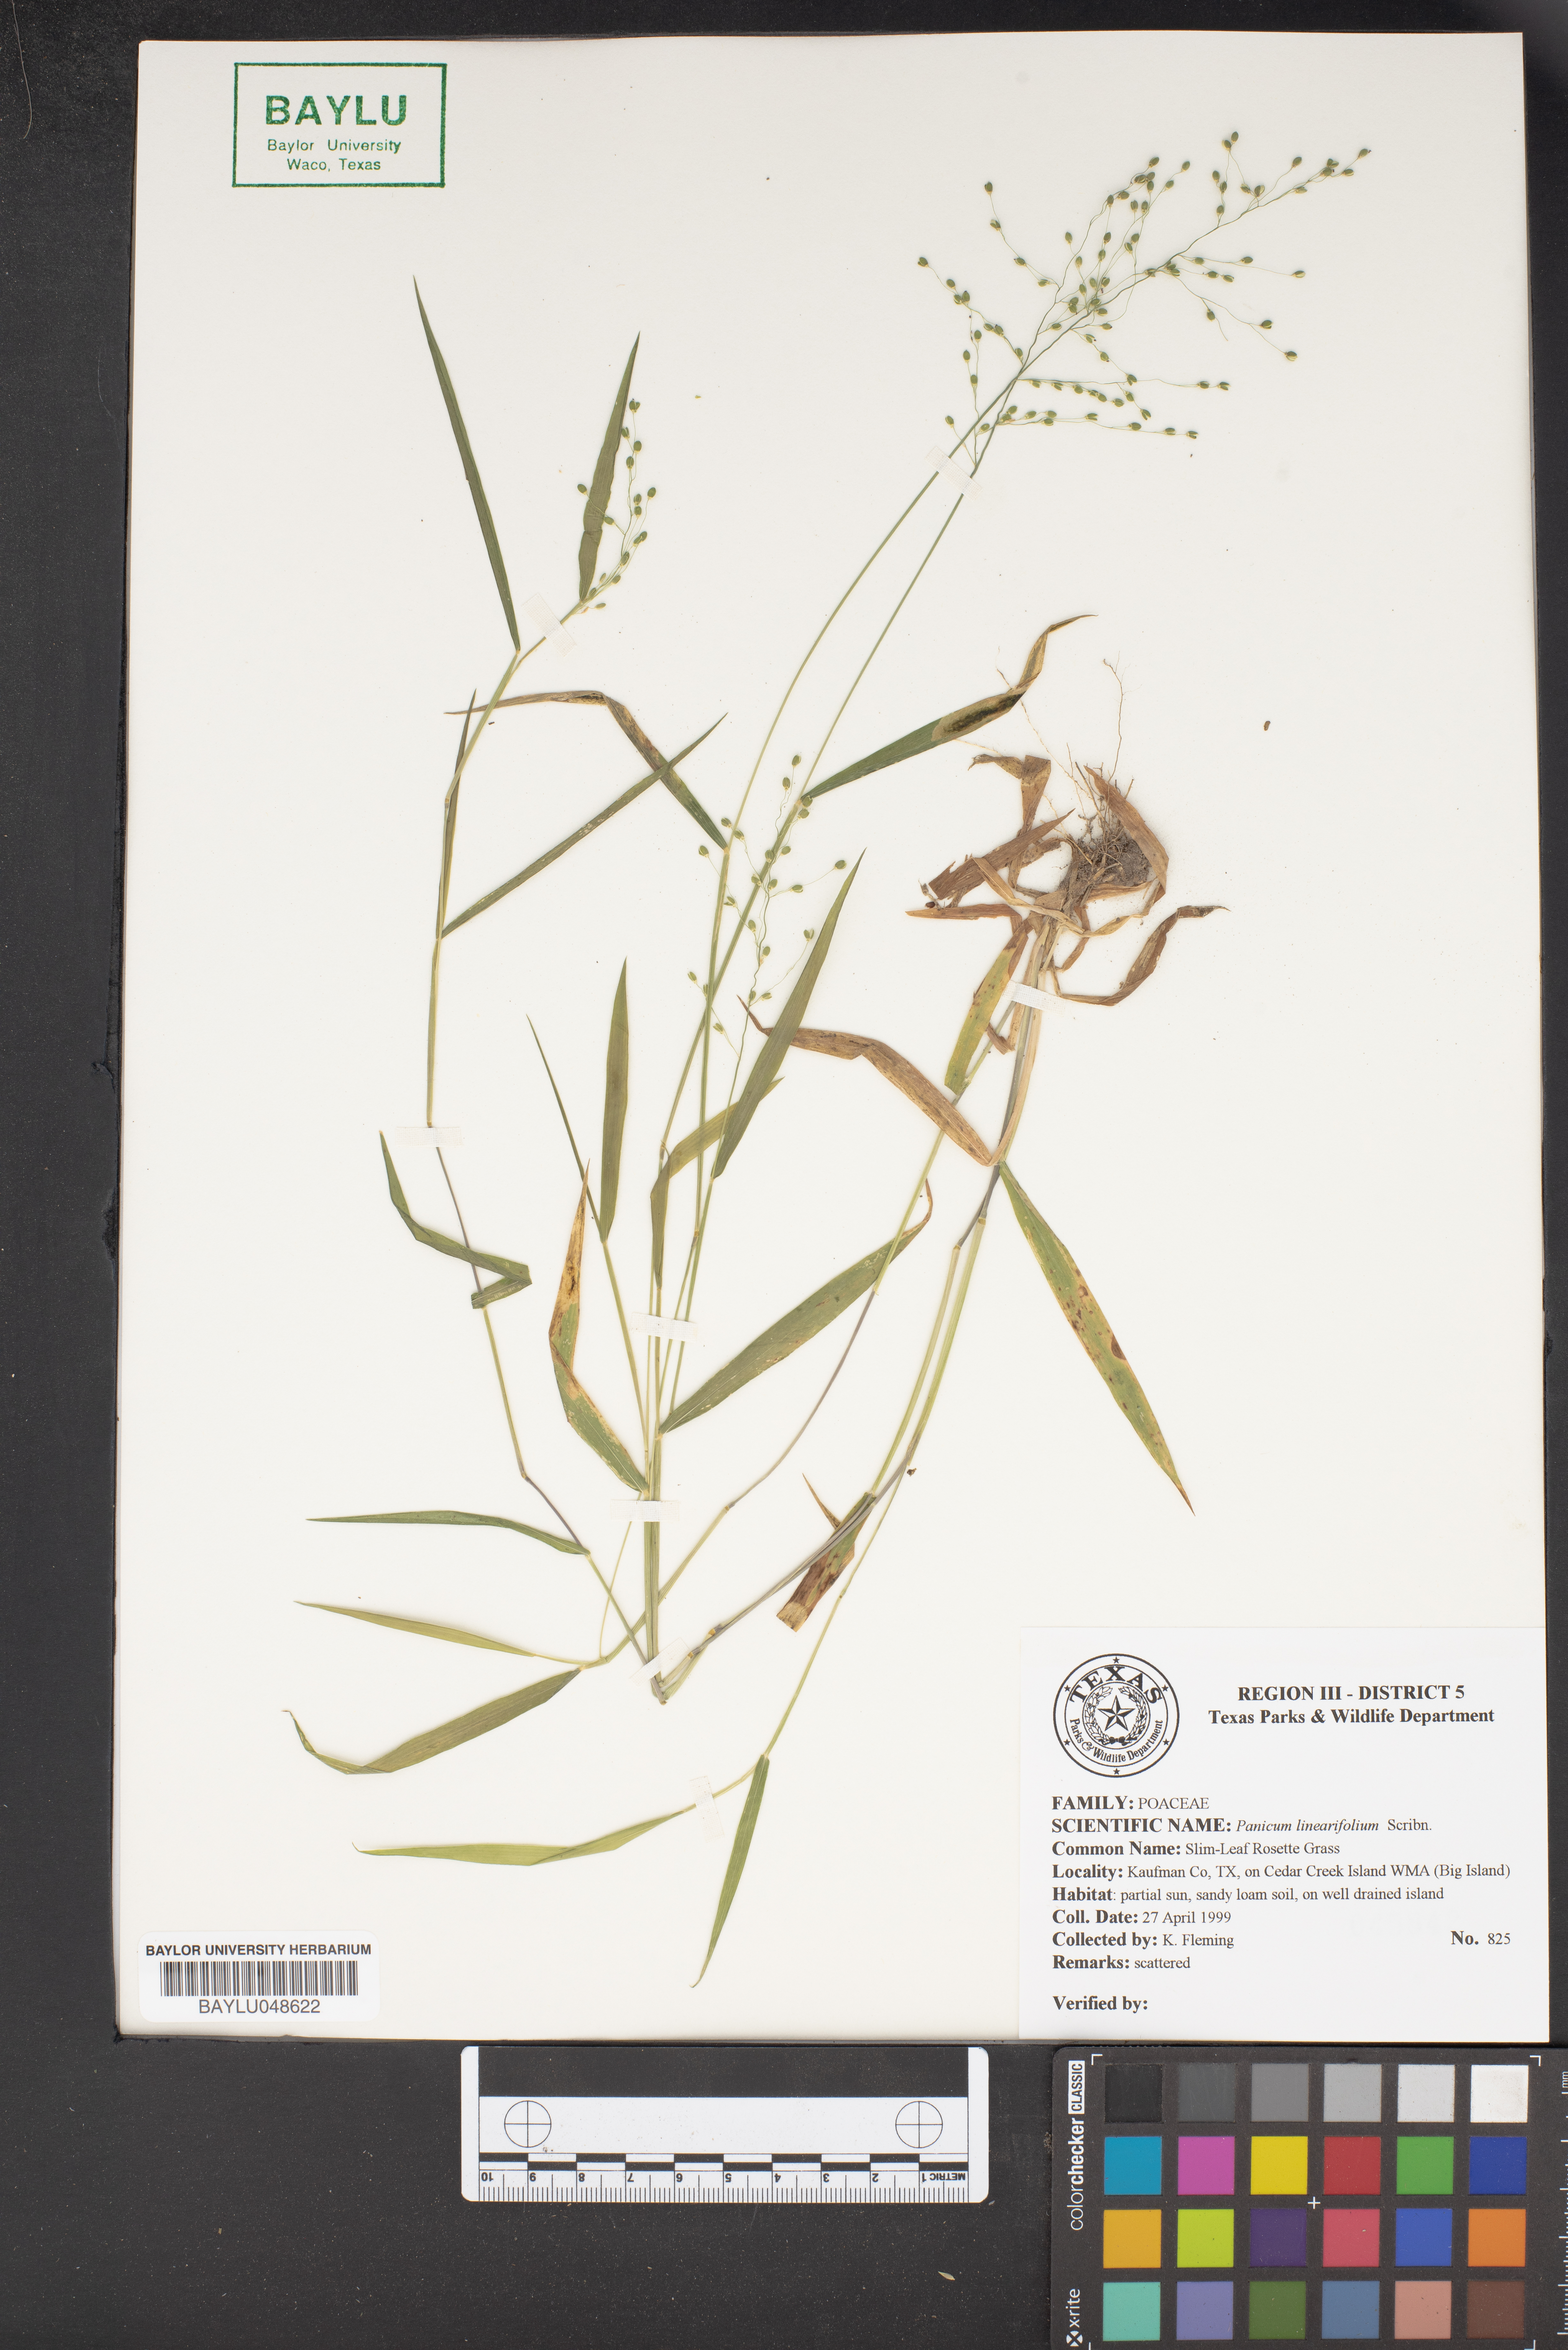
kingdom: Plantae
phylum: Tracheophyta
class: Liliopsida
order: Poales
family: Poaceae
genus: Dichanthelium
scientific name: Dichanthelium linearifolium
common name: Linear-leaved panicgrass
